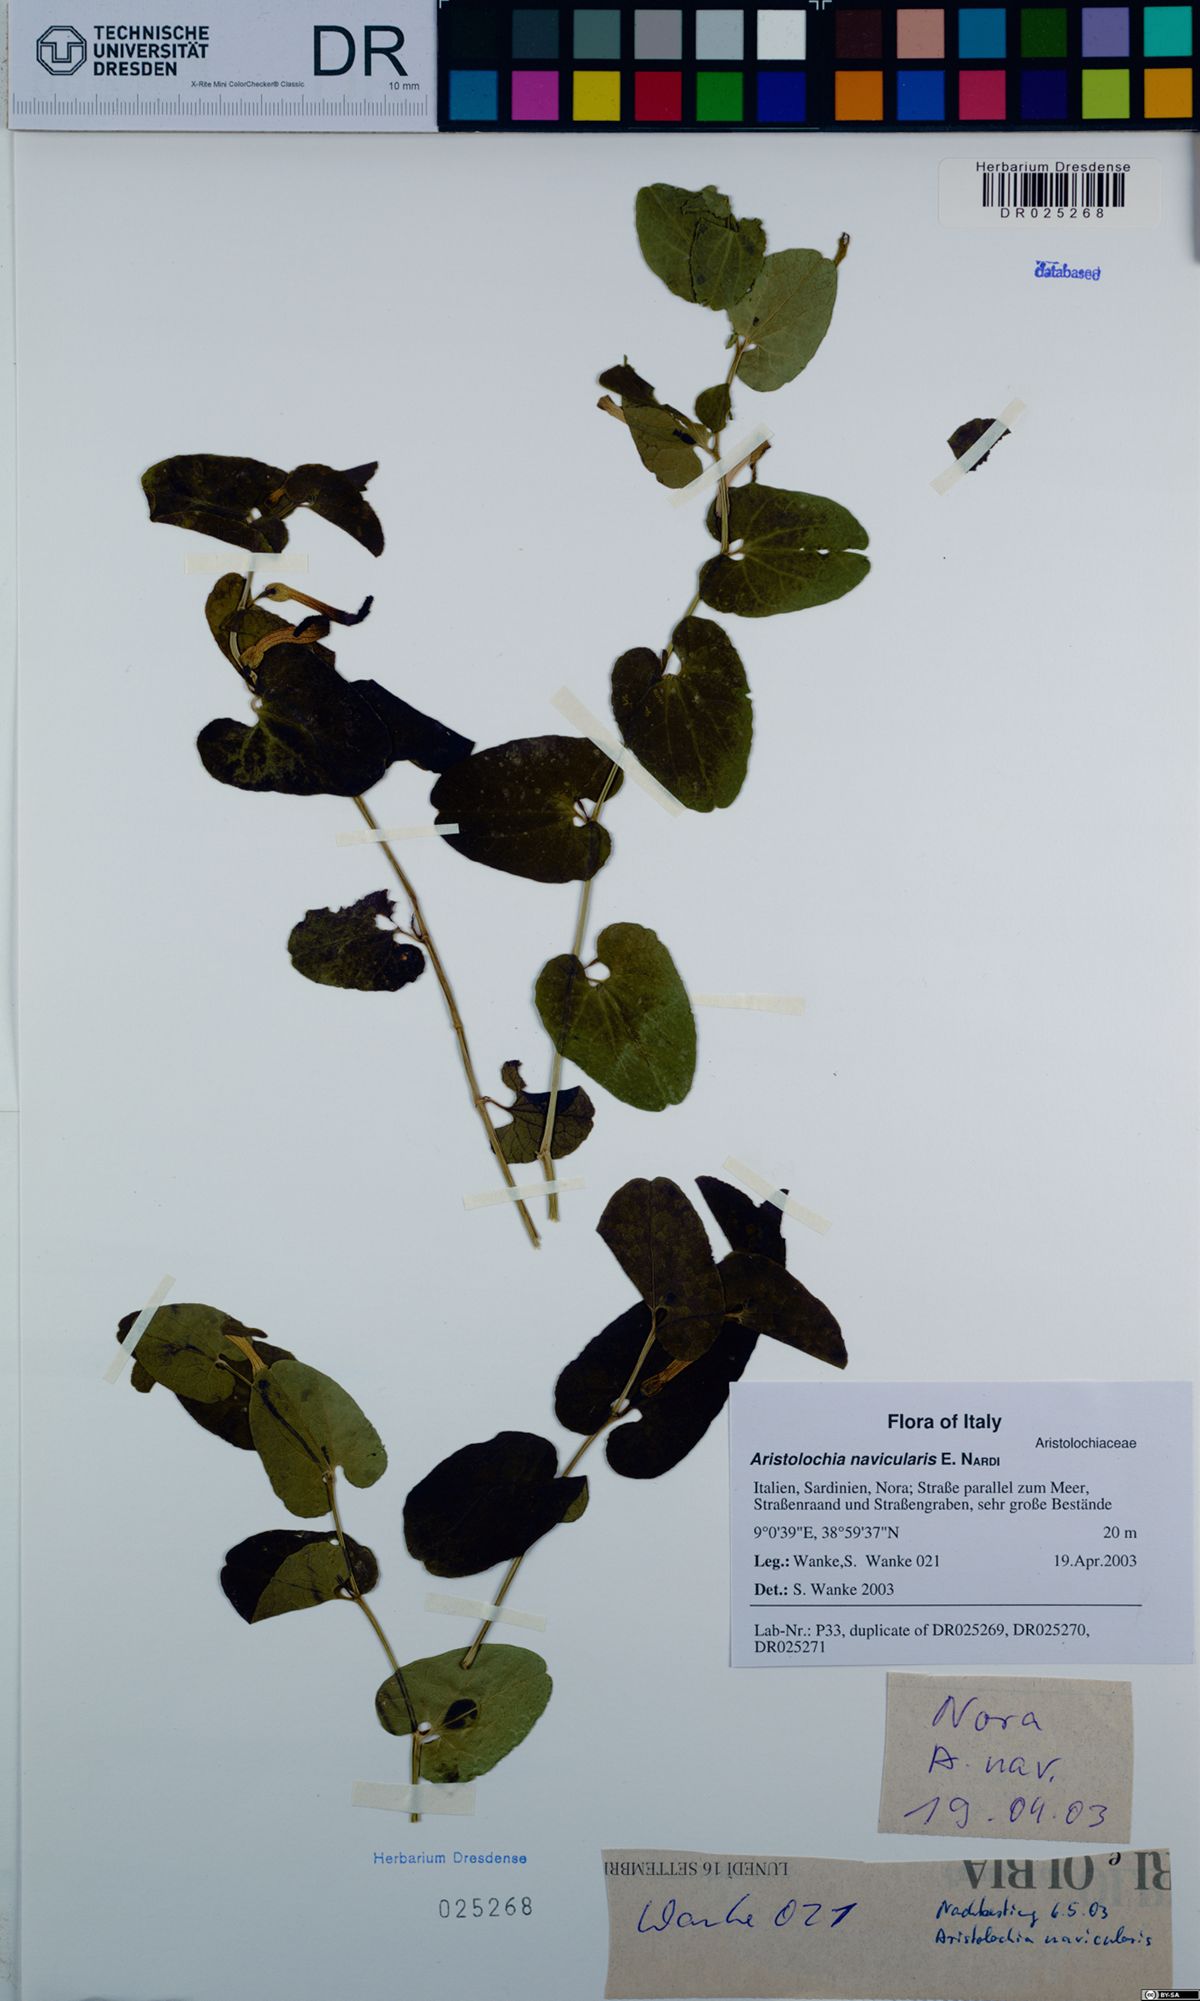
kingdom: Plantae
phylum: Tracheophyta
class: Magnoliopsida
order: Piperales
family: Aristolochiaceae
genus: Aristolochia
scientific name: Aristolochia navicularis
